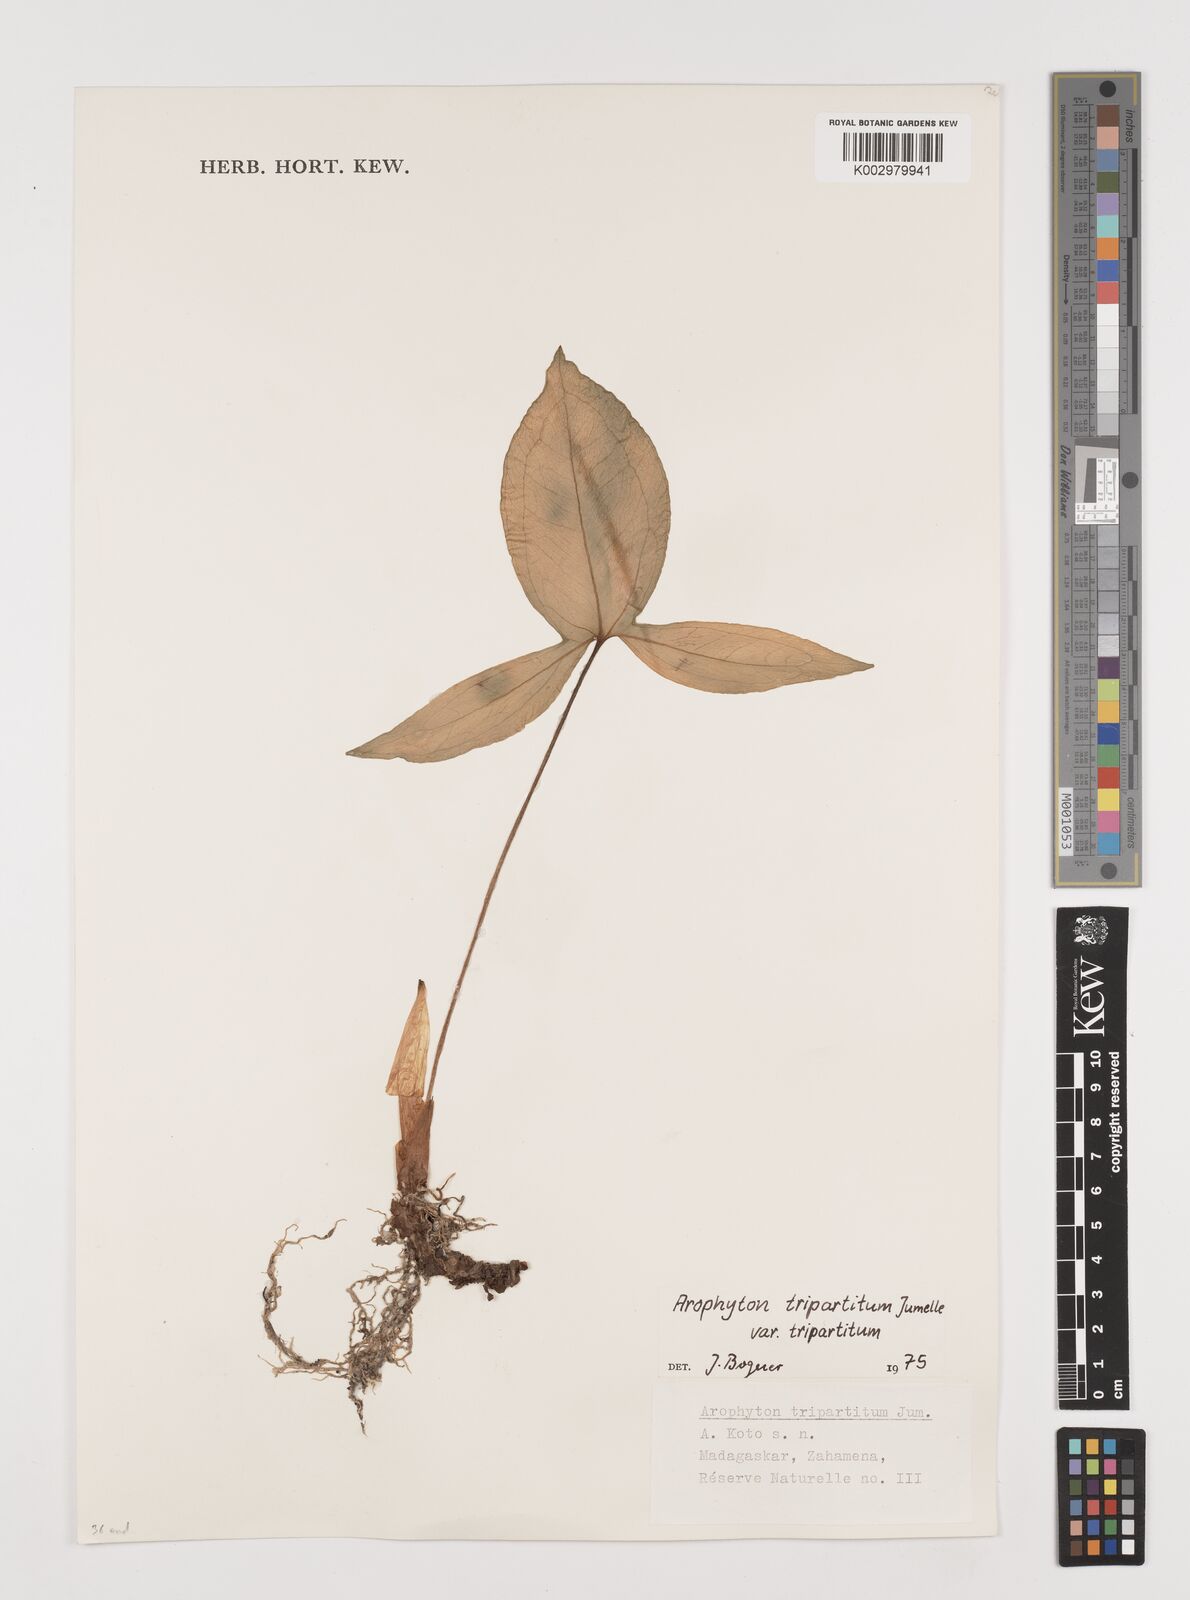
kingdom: Plantae
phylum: Tracheophyta
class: Liliopsida
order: Alismatales
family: Araceae
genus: Arophyton
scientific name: Arophyton tripartitum
